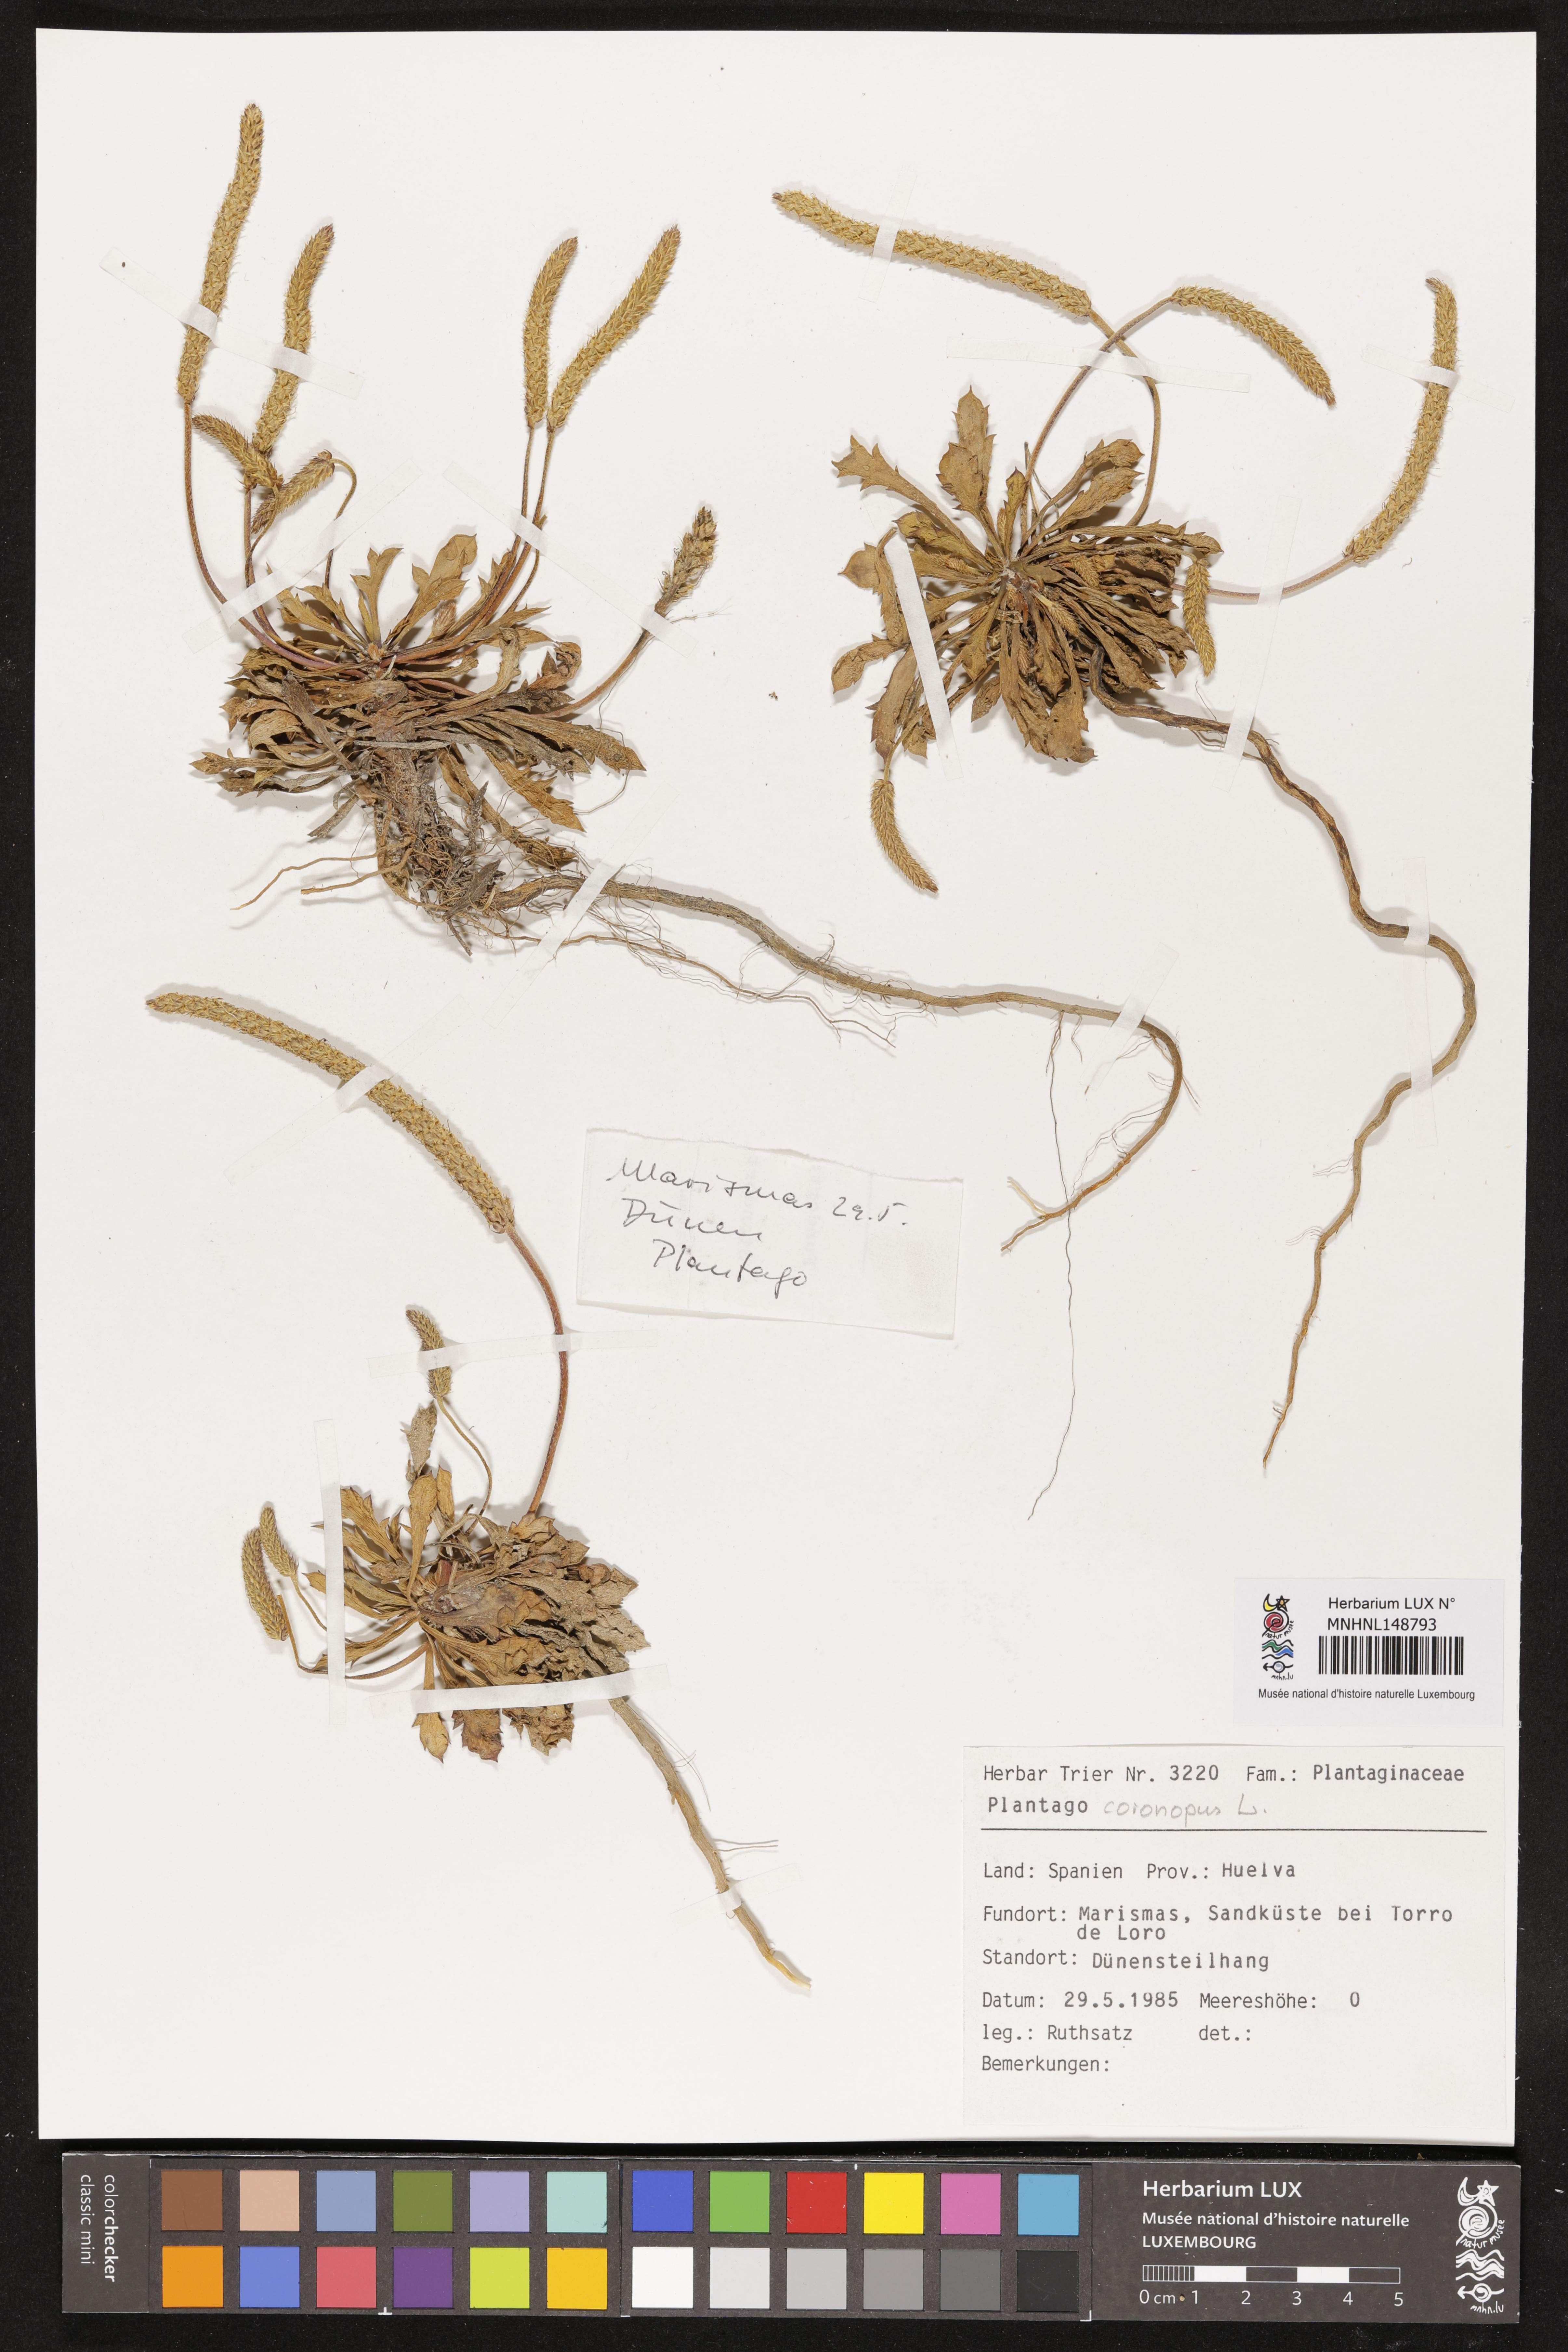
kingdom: Plantae
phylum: Tracheophyta
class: Magnoliopsida
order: Lamiales
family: Plantaginaceae
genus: Plantago
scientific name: Plantago coronopus
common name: Buck's-horn plantain
